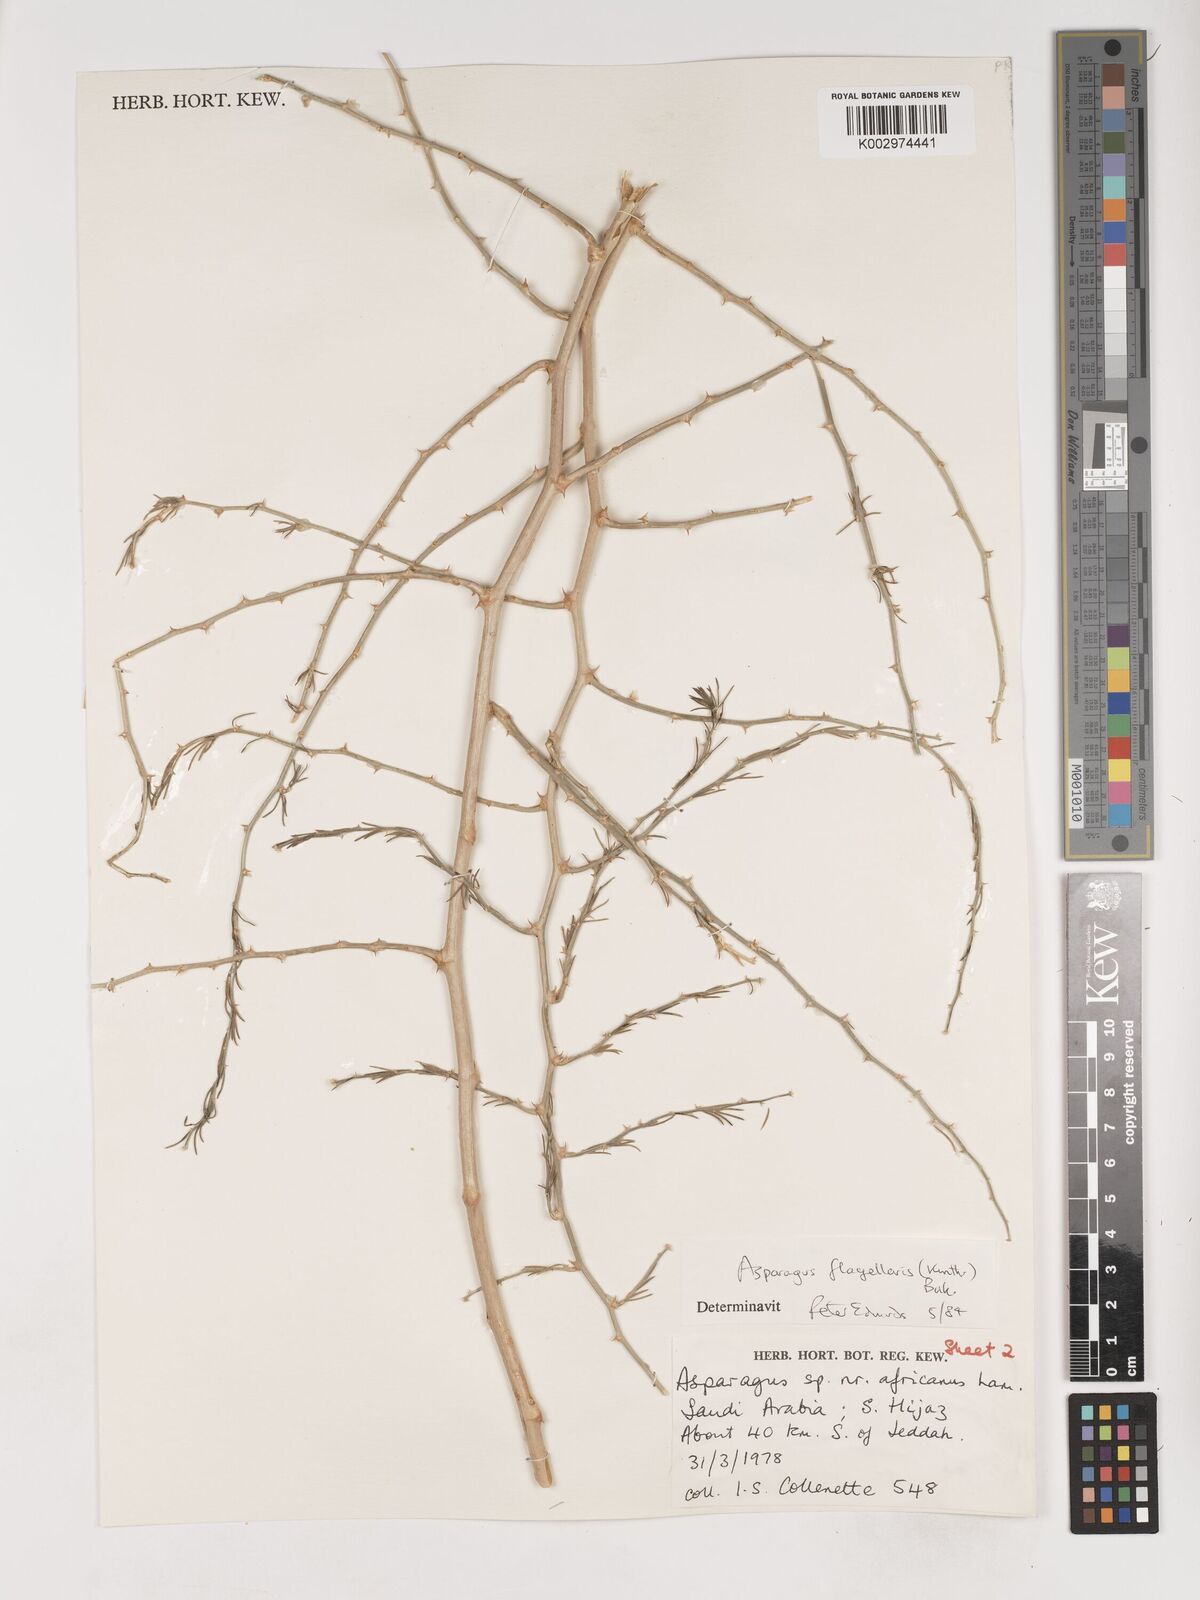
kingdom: Plantae
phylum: Tracheophyta
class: Liliopsida
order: Asparagales
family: Asparagaceae
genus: Asparagus
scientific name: Asparagus flagellaris
